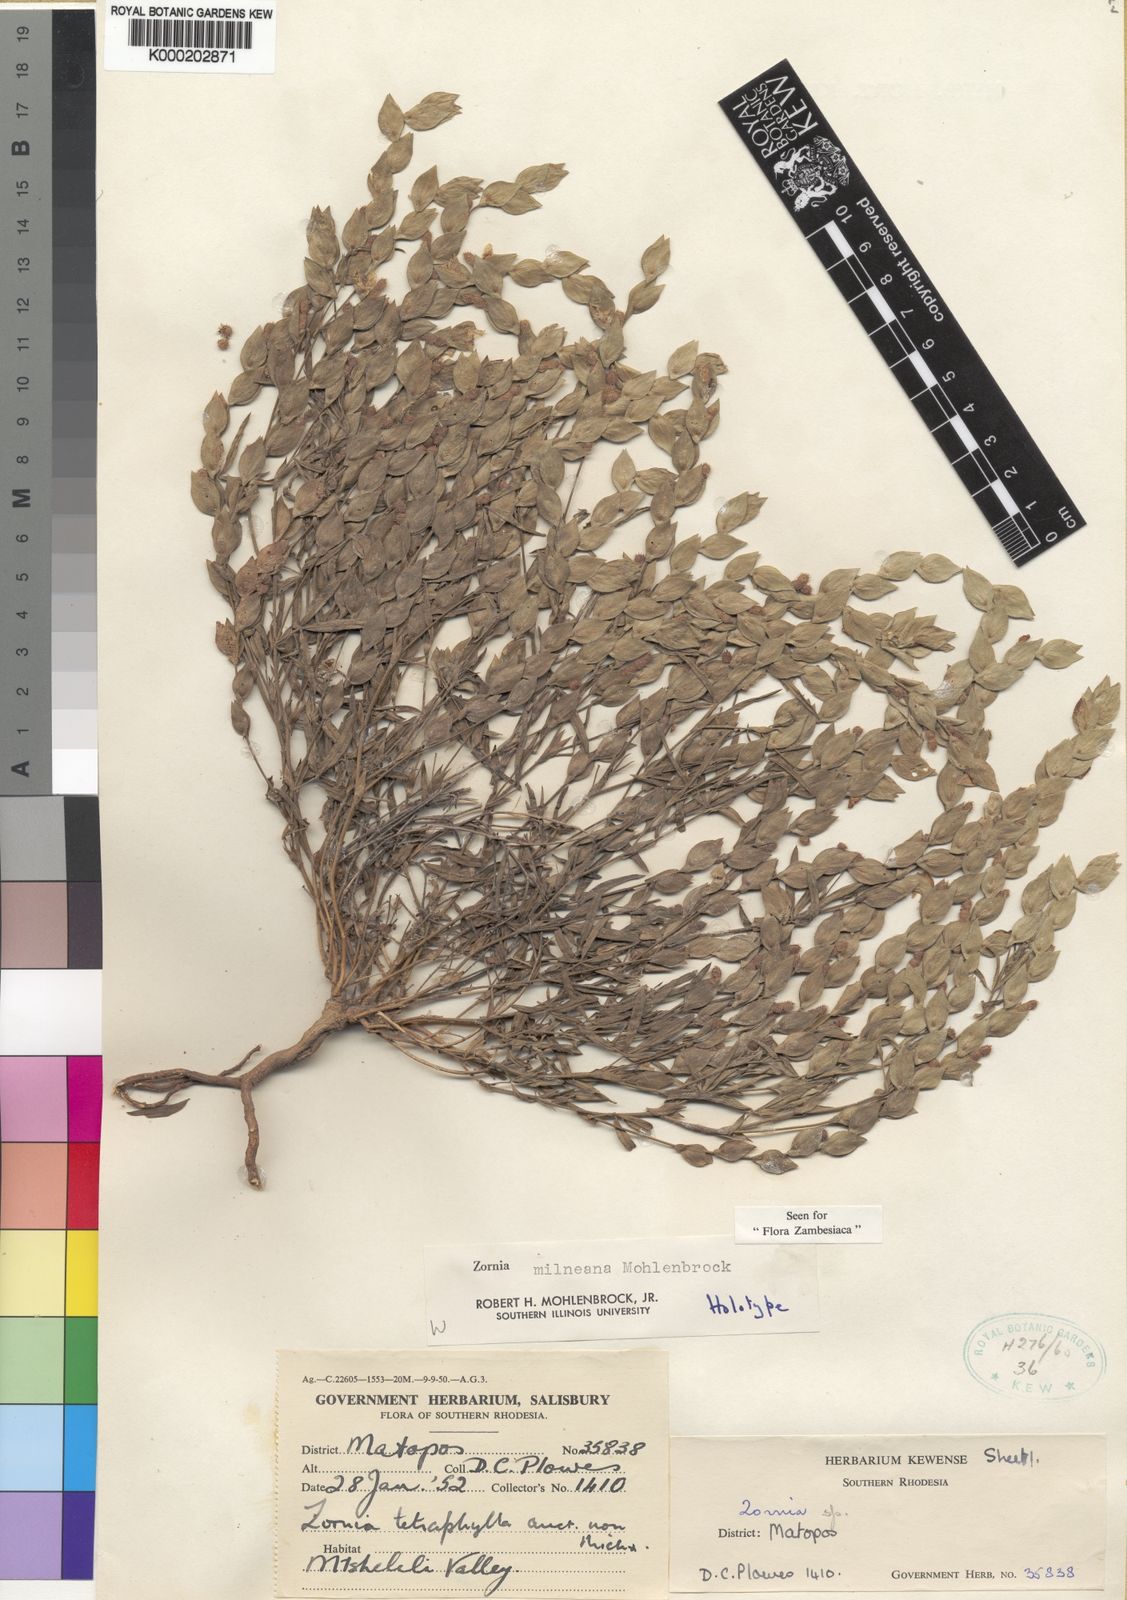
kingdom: Plantae
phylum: Tracheophyta
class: Magnoliopsida
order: Fabales
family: Fabaceae
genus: Zornia
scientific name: Zornia milneana
